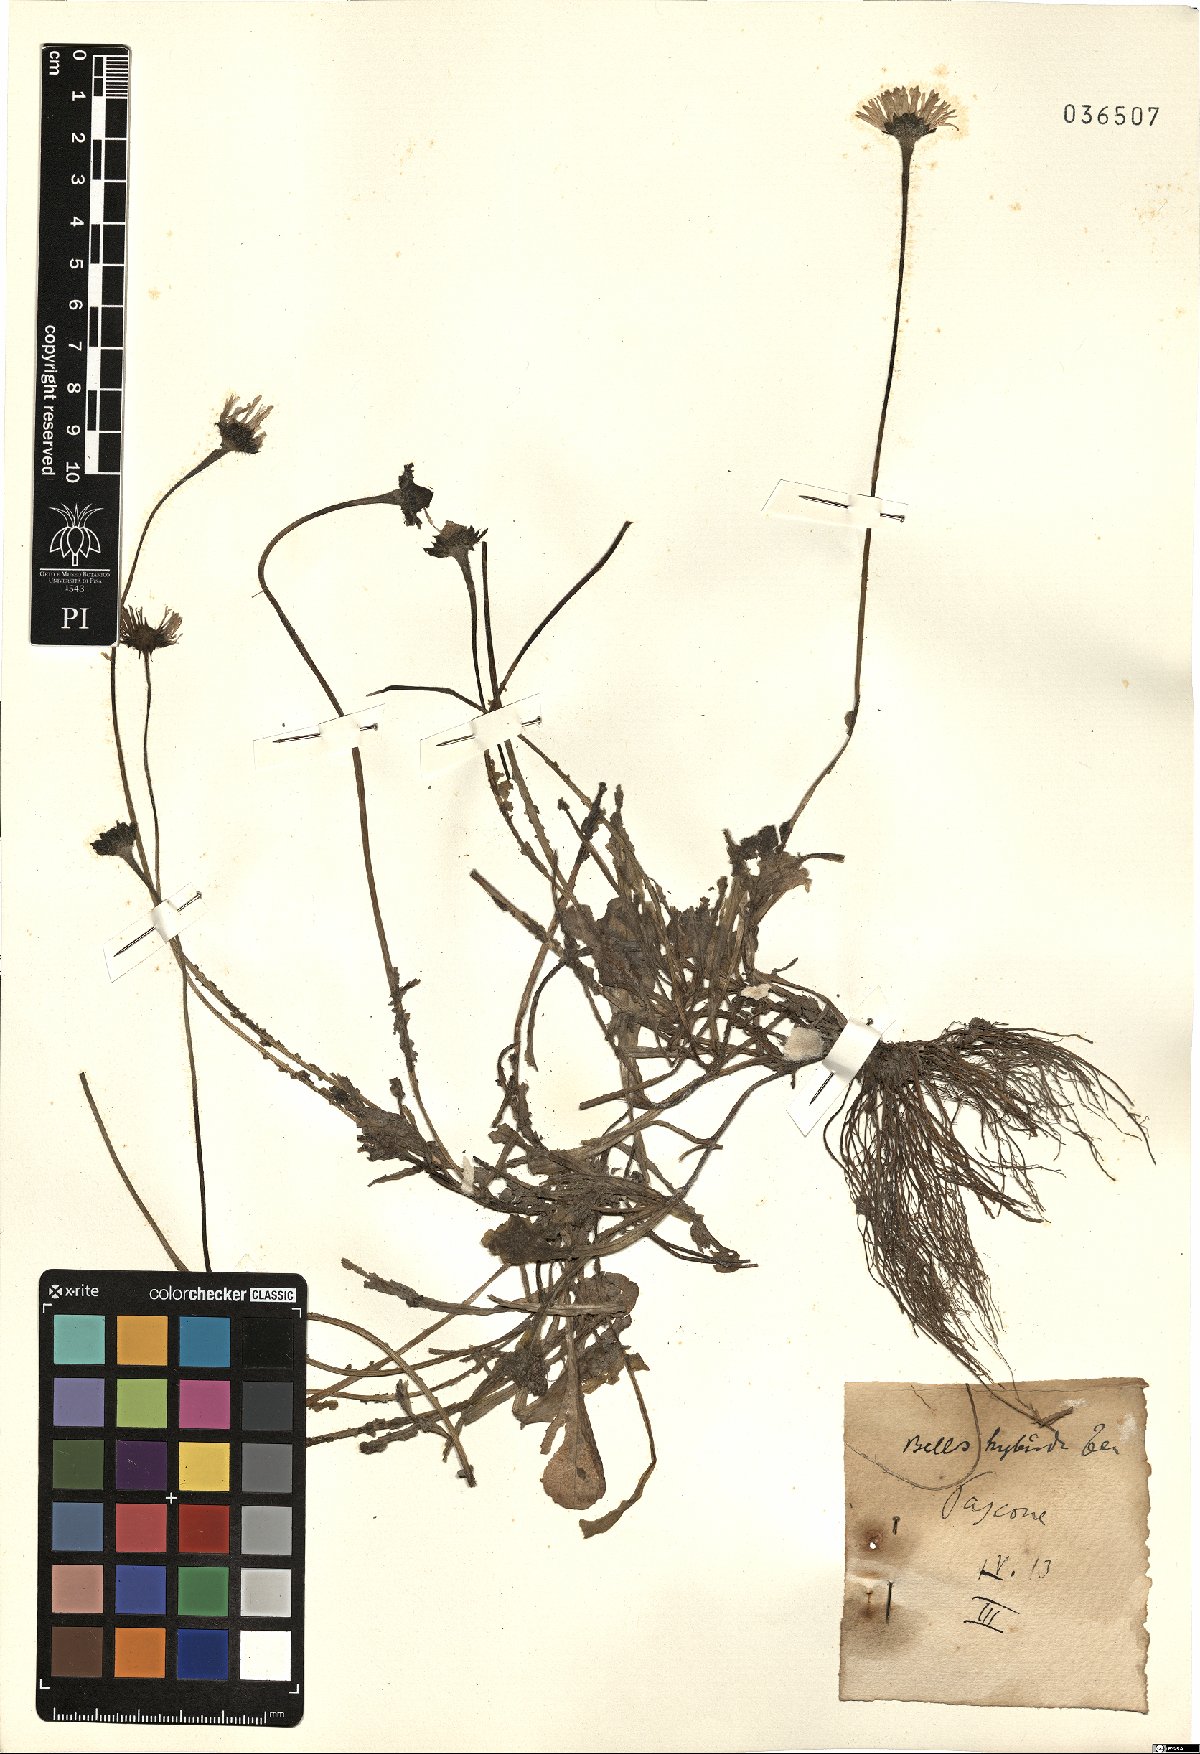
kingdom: Plantae
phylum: Tracheophyta
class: Magnoliopsida
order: Asterales
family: Asteraceae
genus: Bellis
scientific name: Bellis perennis
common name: Lawndaisy
